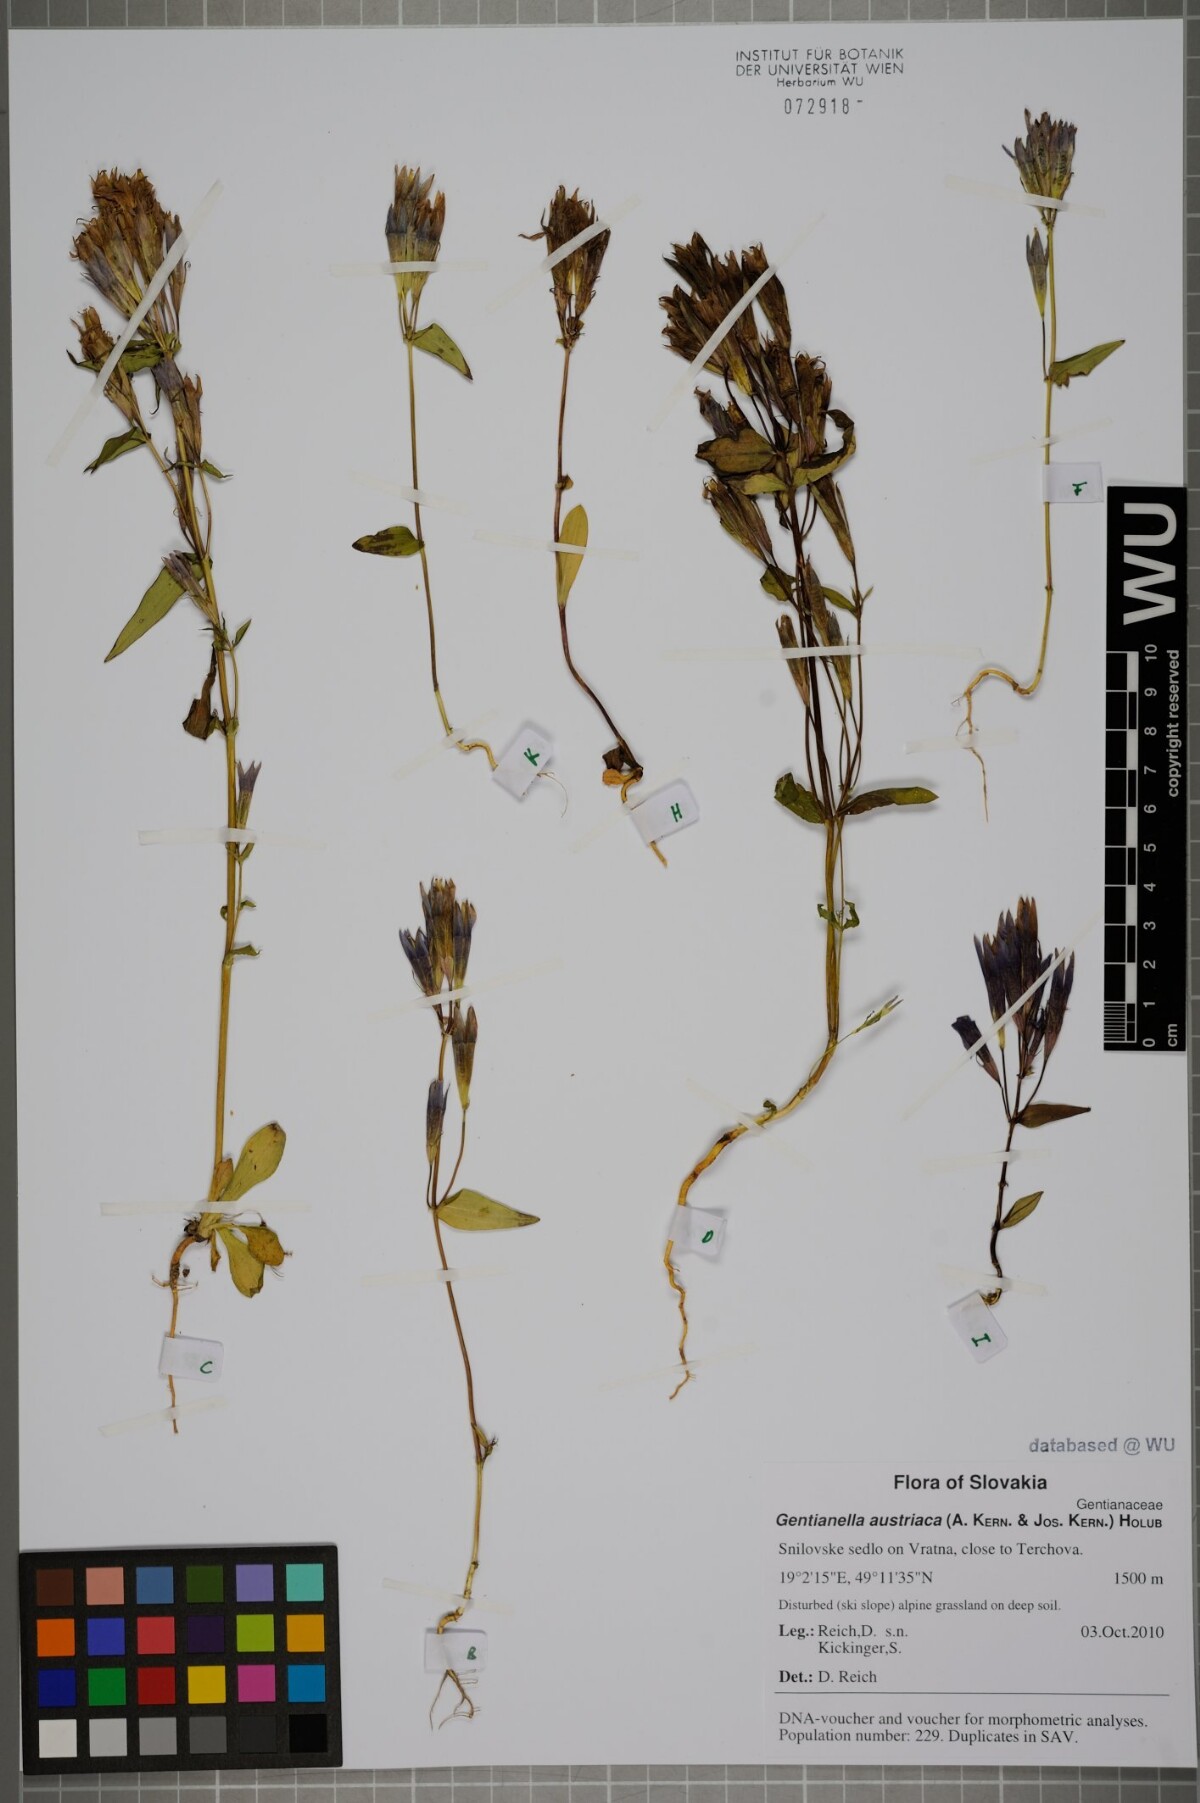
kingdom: Plantae
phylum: Tracheophyta
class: Magnoliopsida
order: Gentianales
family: Gentianaceae
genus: Gentianella
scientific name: Gentianella austriaca
